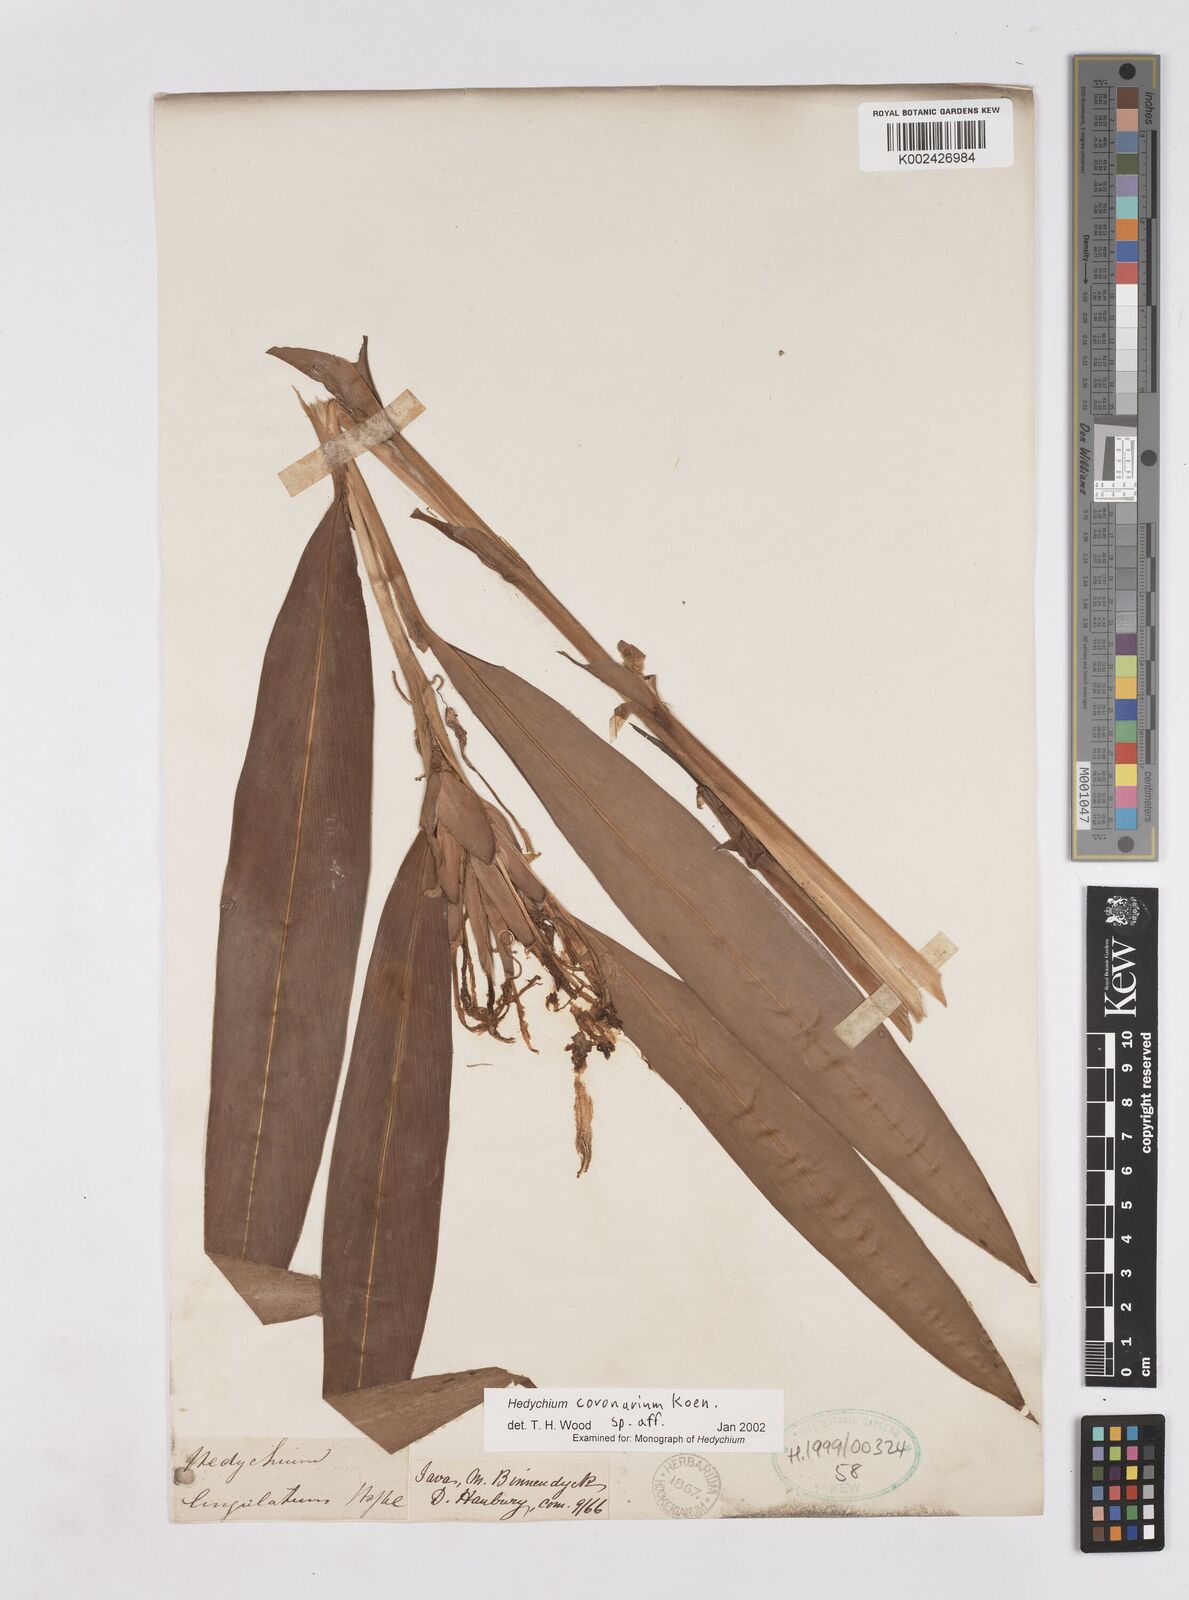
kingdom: Plantae
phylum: Tracheophyta
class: Liliopsida
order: Zingiberales
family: Zingiberaceae
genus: Hedychium
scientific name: Hedychium coronarium
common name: White garland-lily
